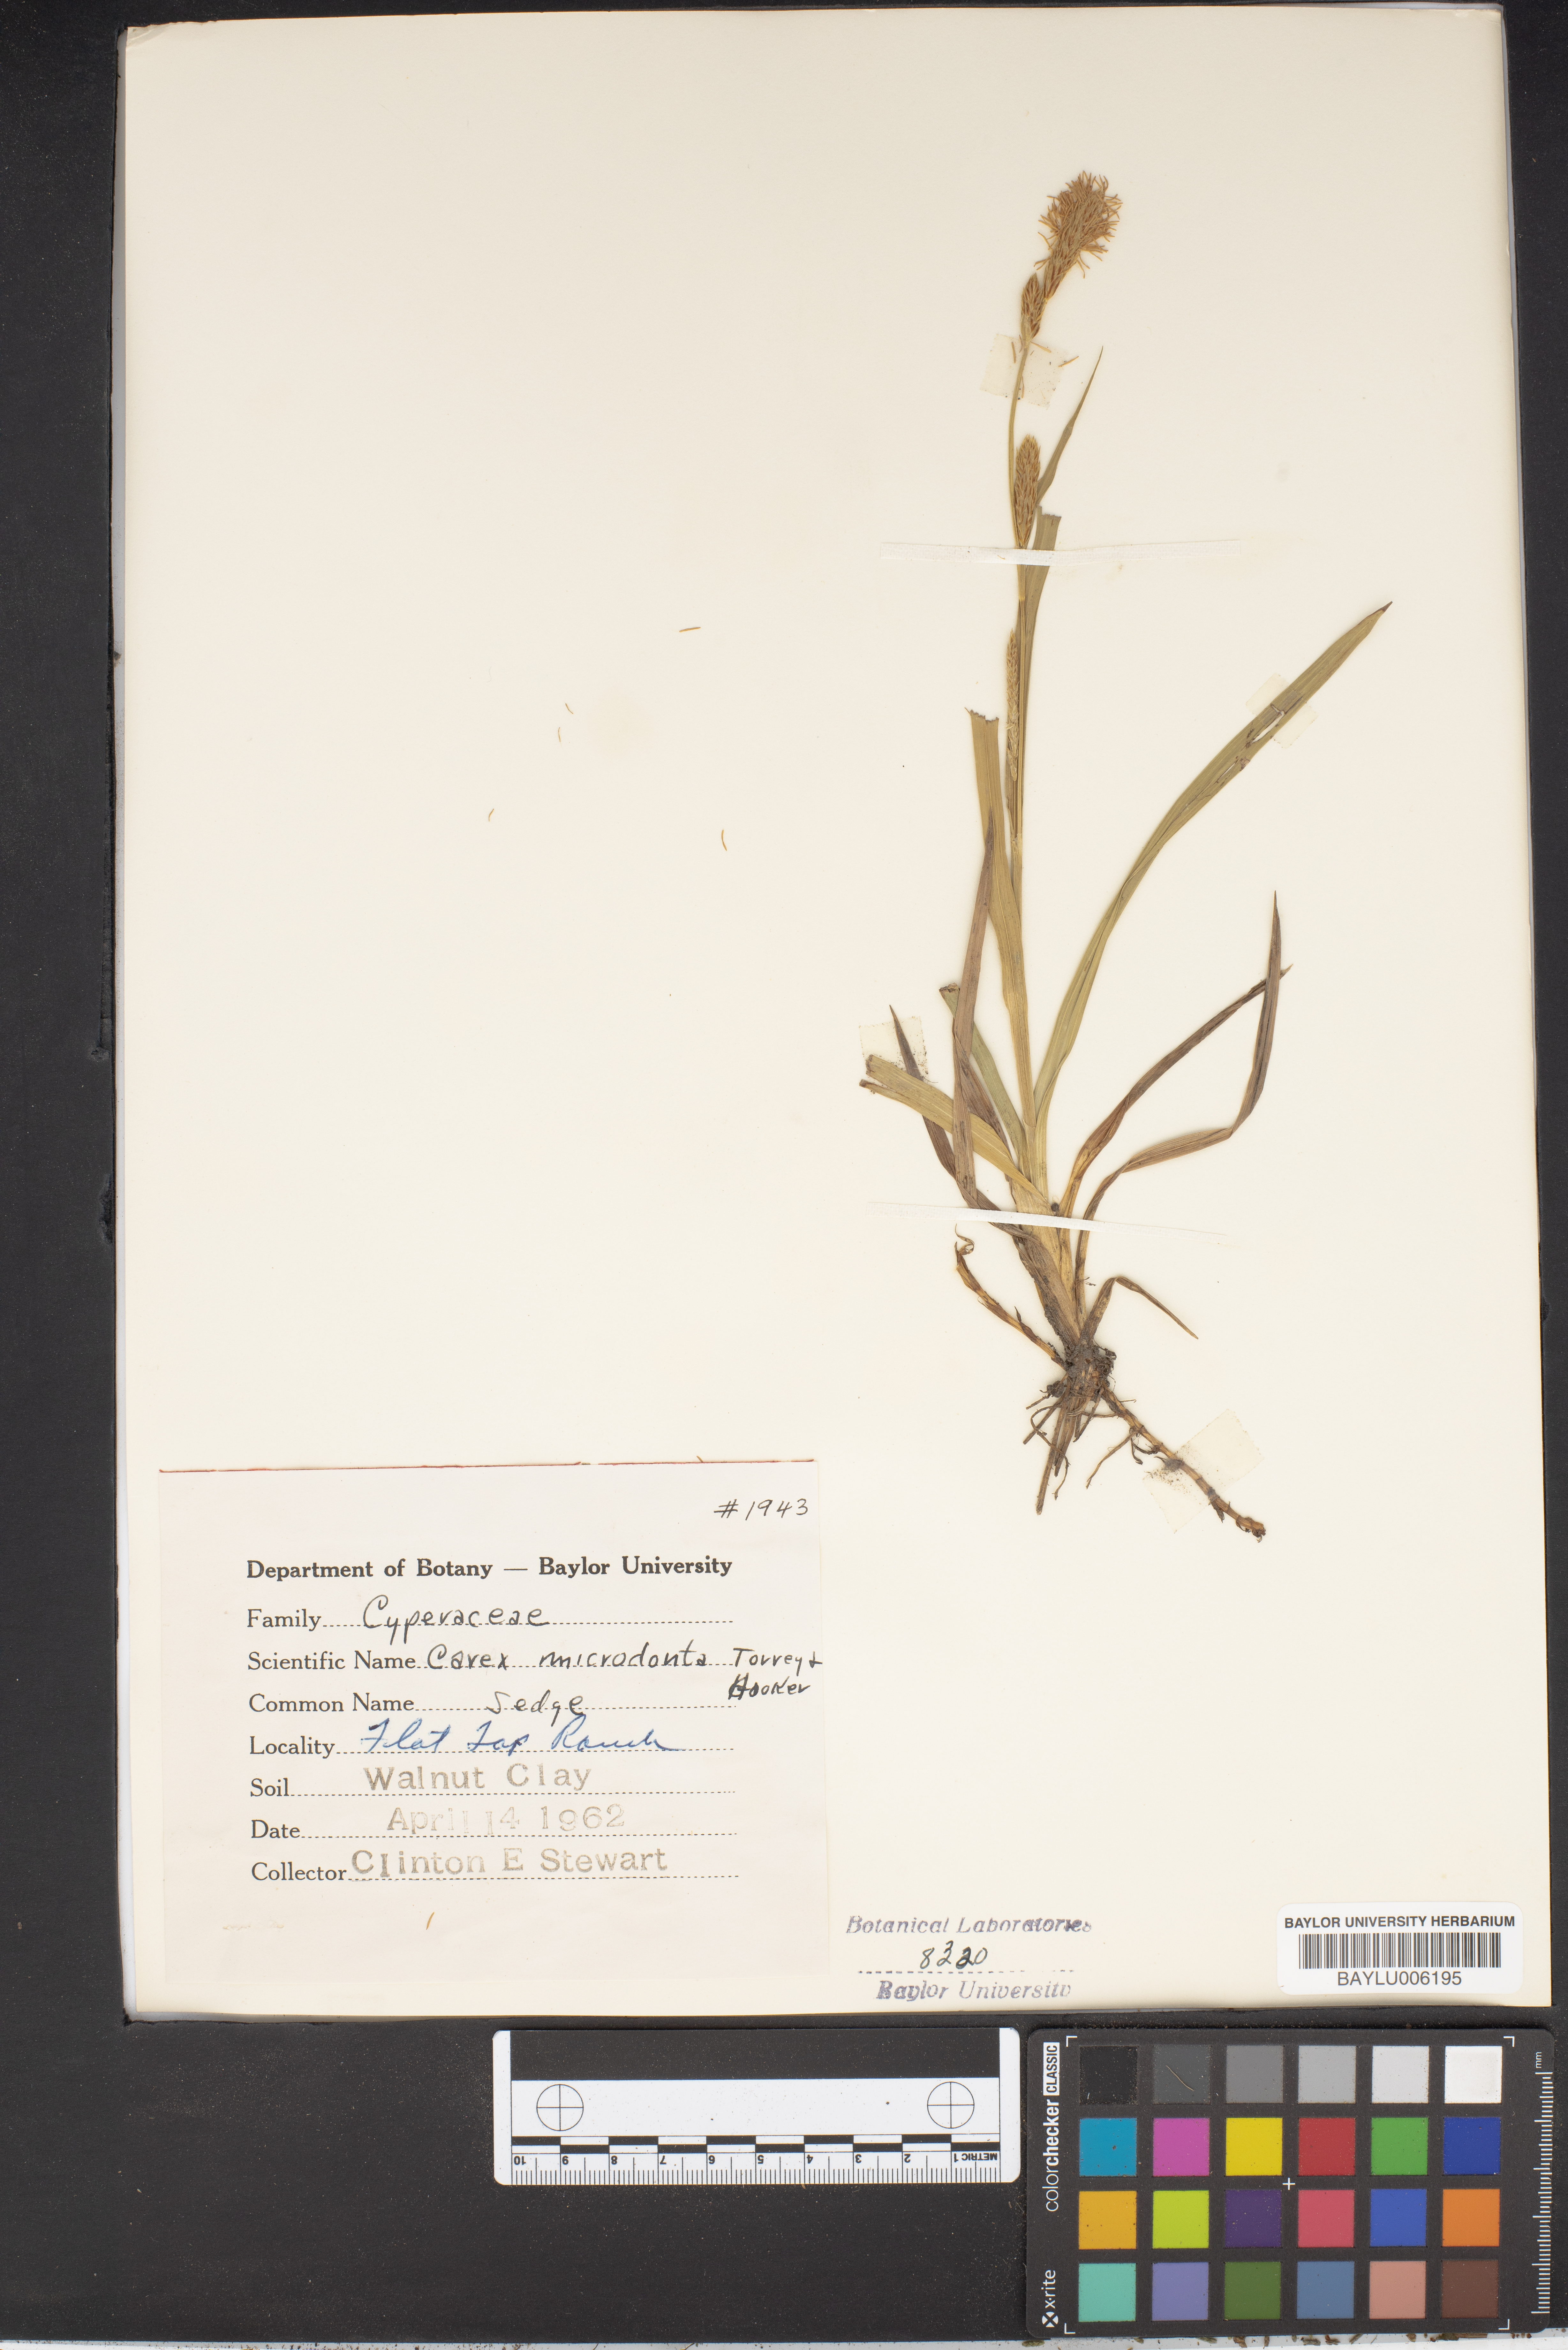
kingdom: Plantae
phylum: Tracheophyta
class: Liliopsida
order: Poales
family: Cyperaceae
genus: Carex
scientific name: Carex microdonta
